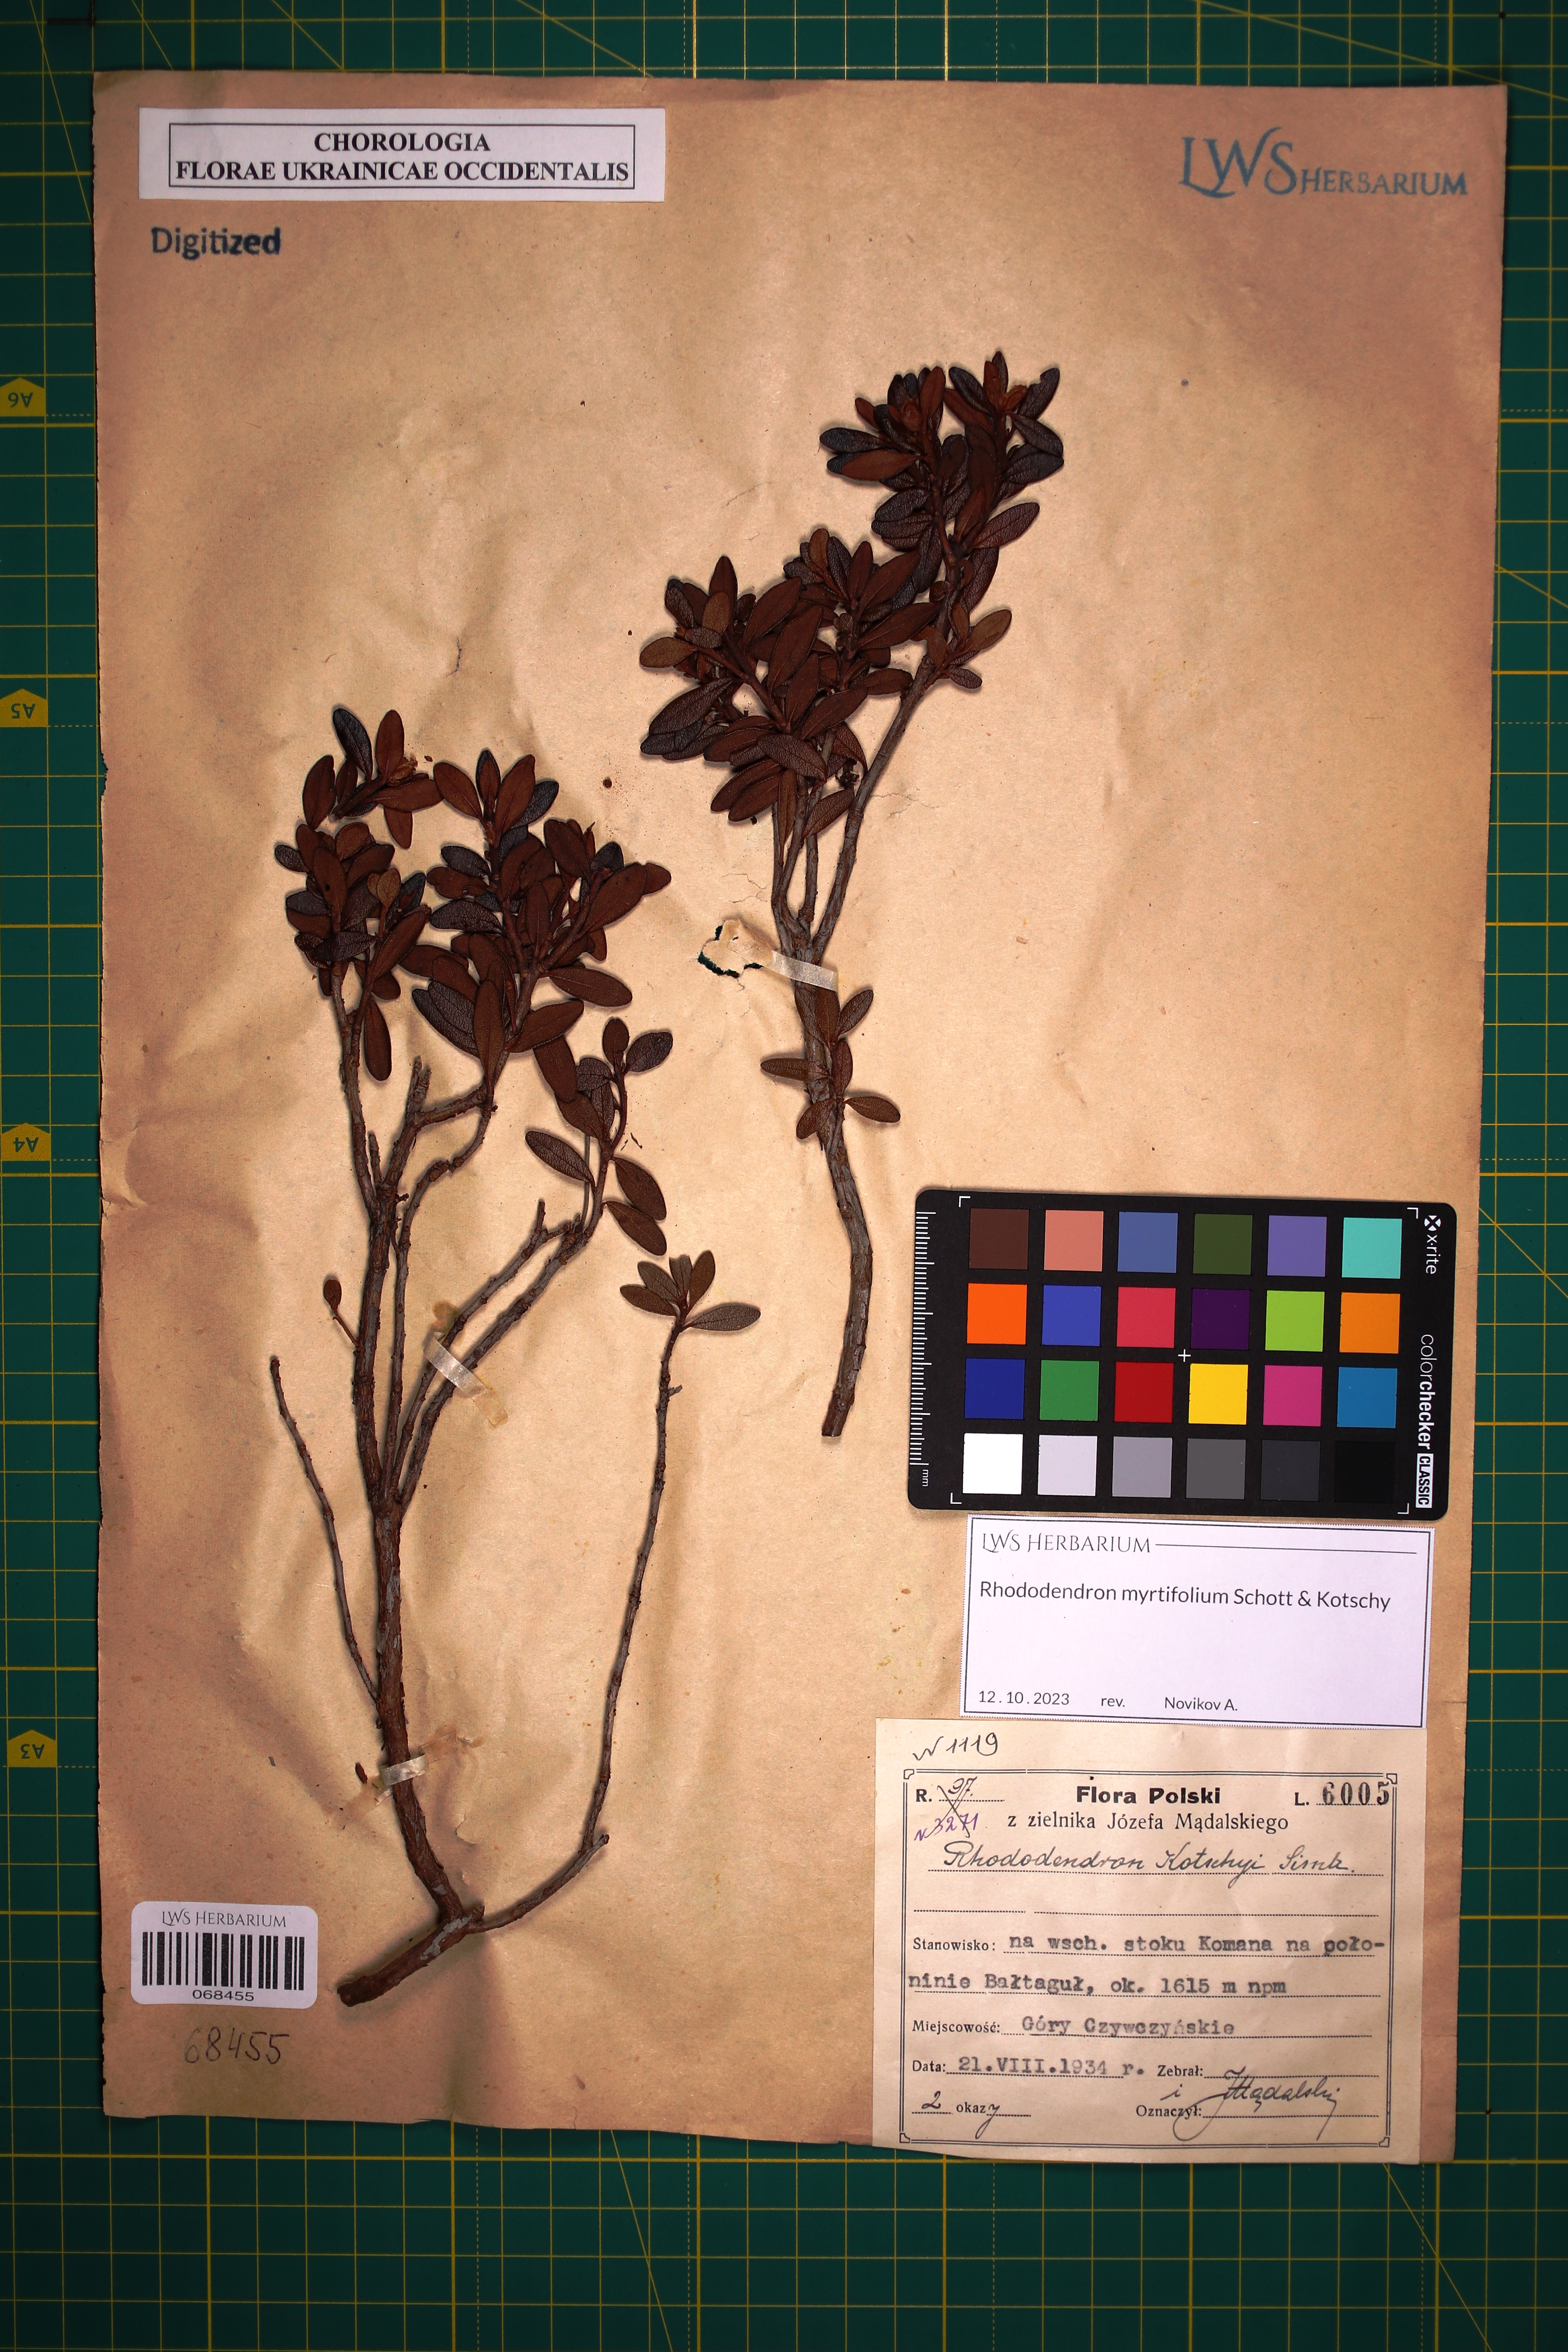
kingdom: Plantae
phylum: Tracheophyta
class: Magnoliopsida
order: Ericales
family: Ericaceae
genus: Rhododendron
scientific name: Rhododendron kotschyi
